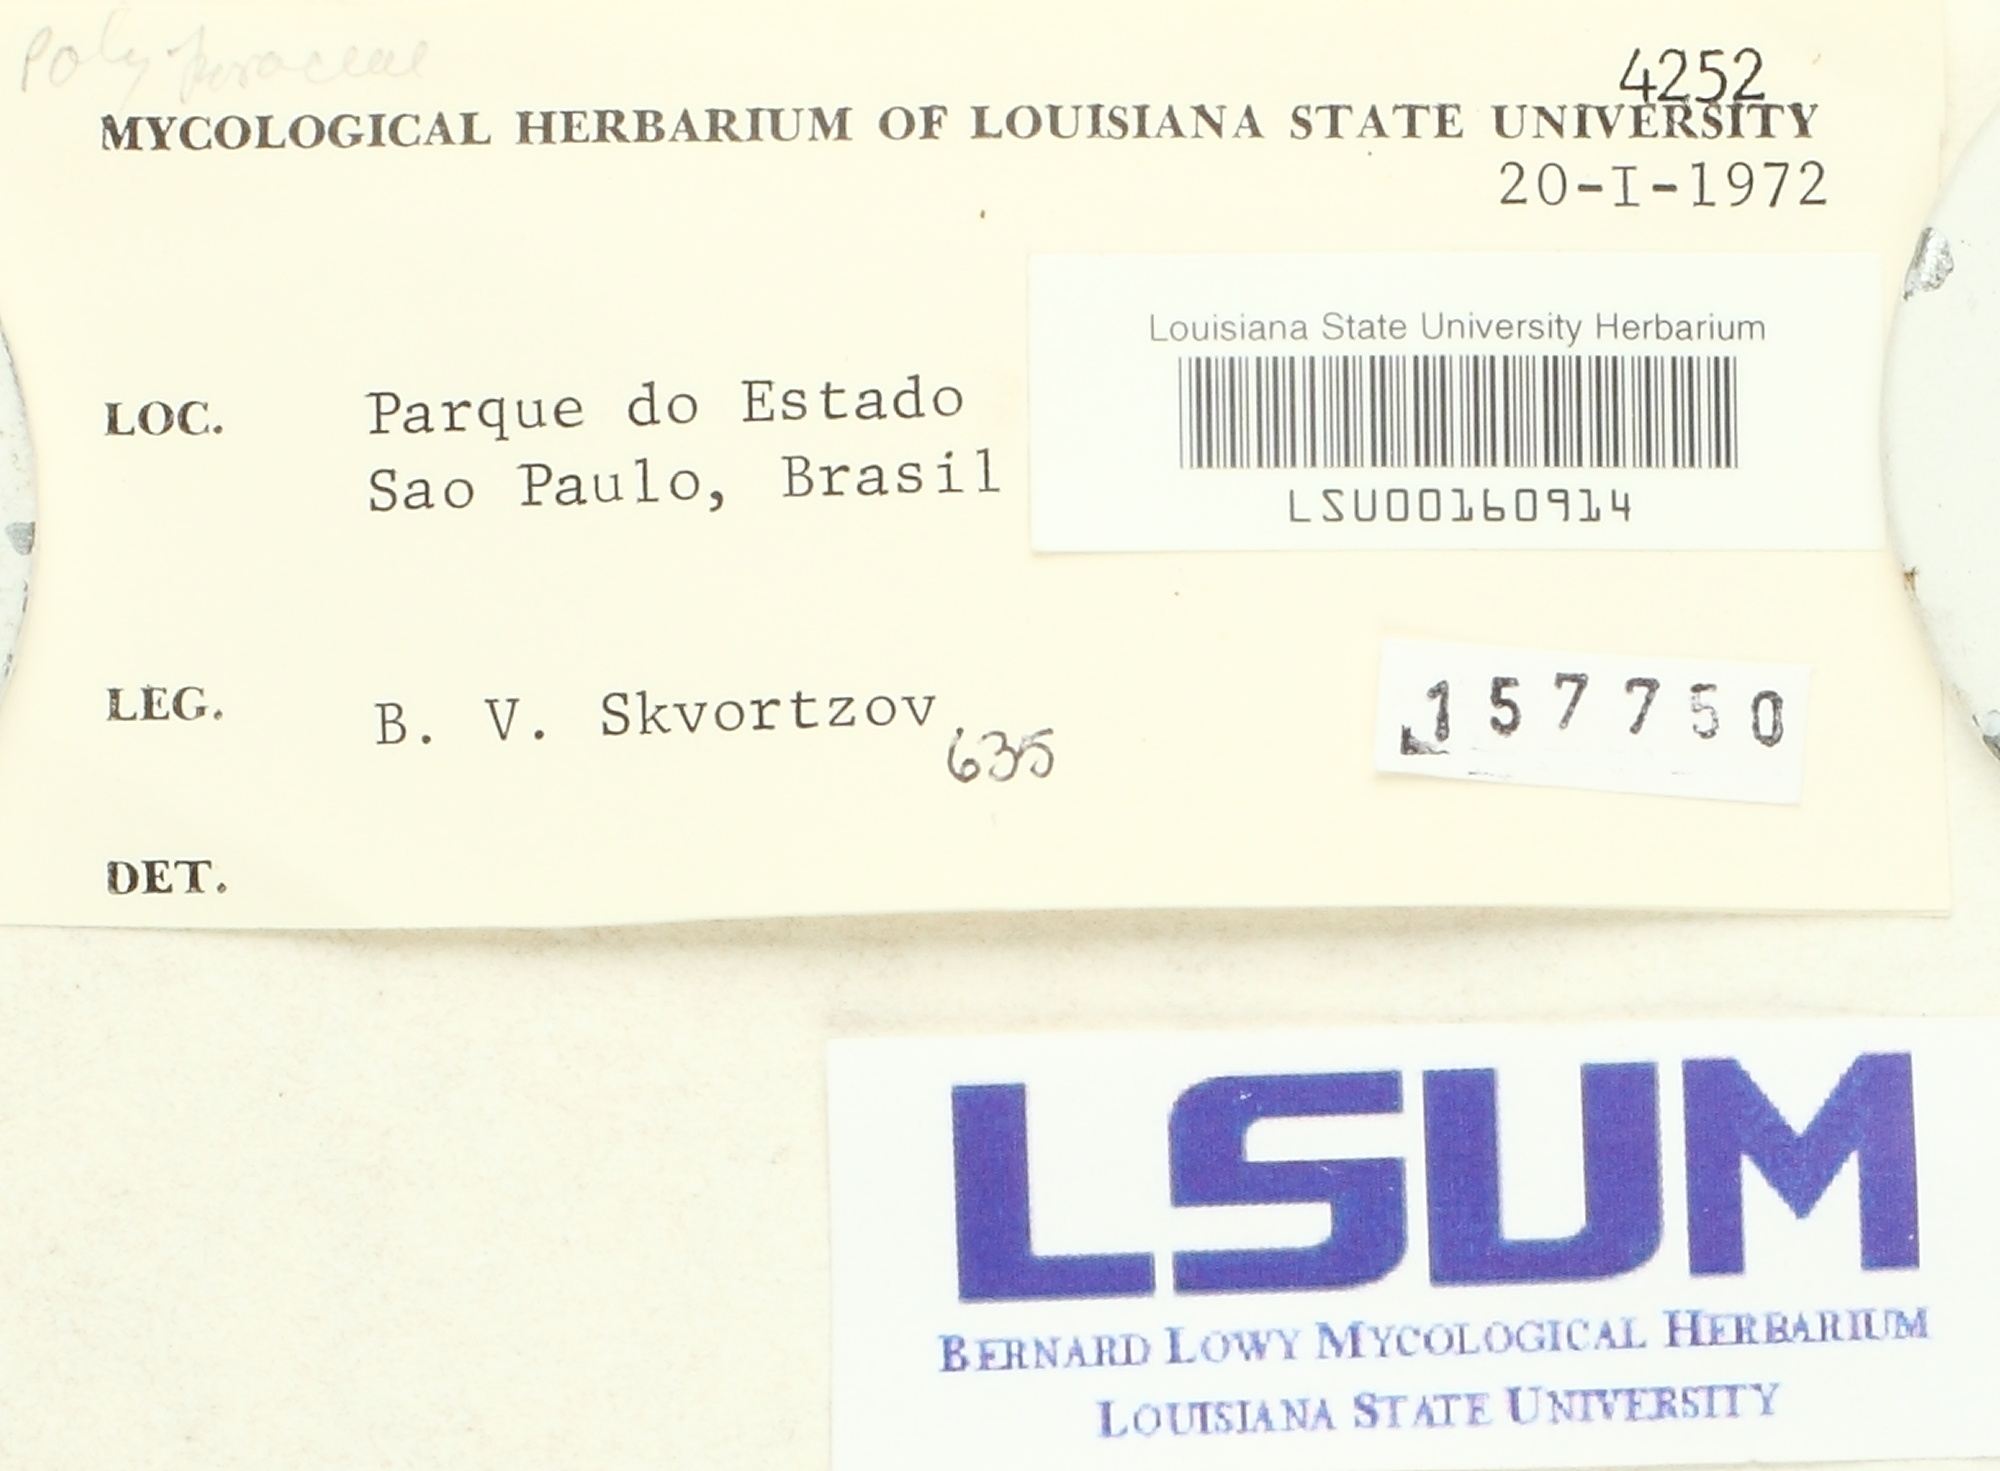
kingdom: Fungi
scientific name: Fungi
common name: Fungi
